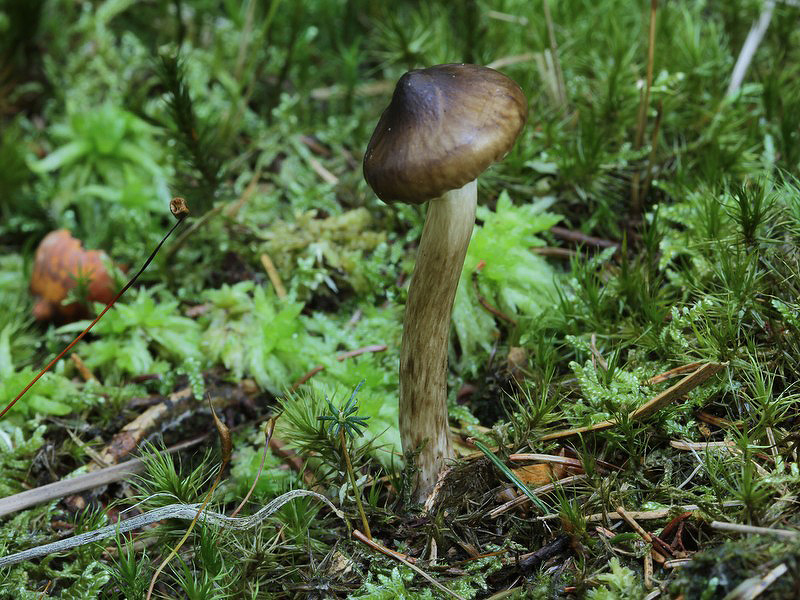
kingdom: Fungi
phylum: Basidiomycota
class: Agaricomycetes
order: Agaricales
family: Hygrophoraceae
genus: Hygrophorus
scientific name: Hygrophorus olivaceoalbus
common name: hvidbrun sneglehat
